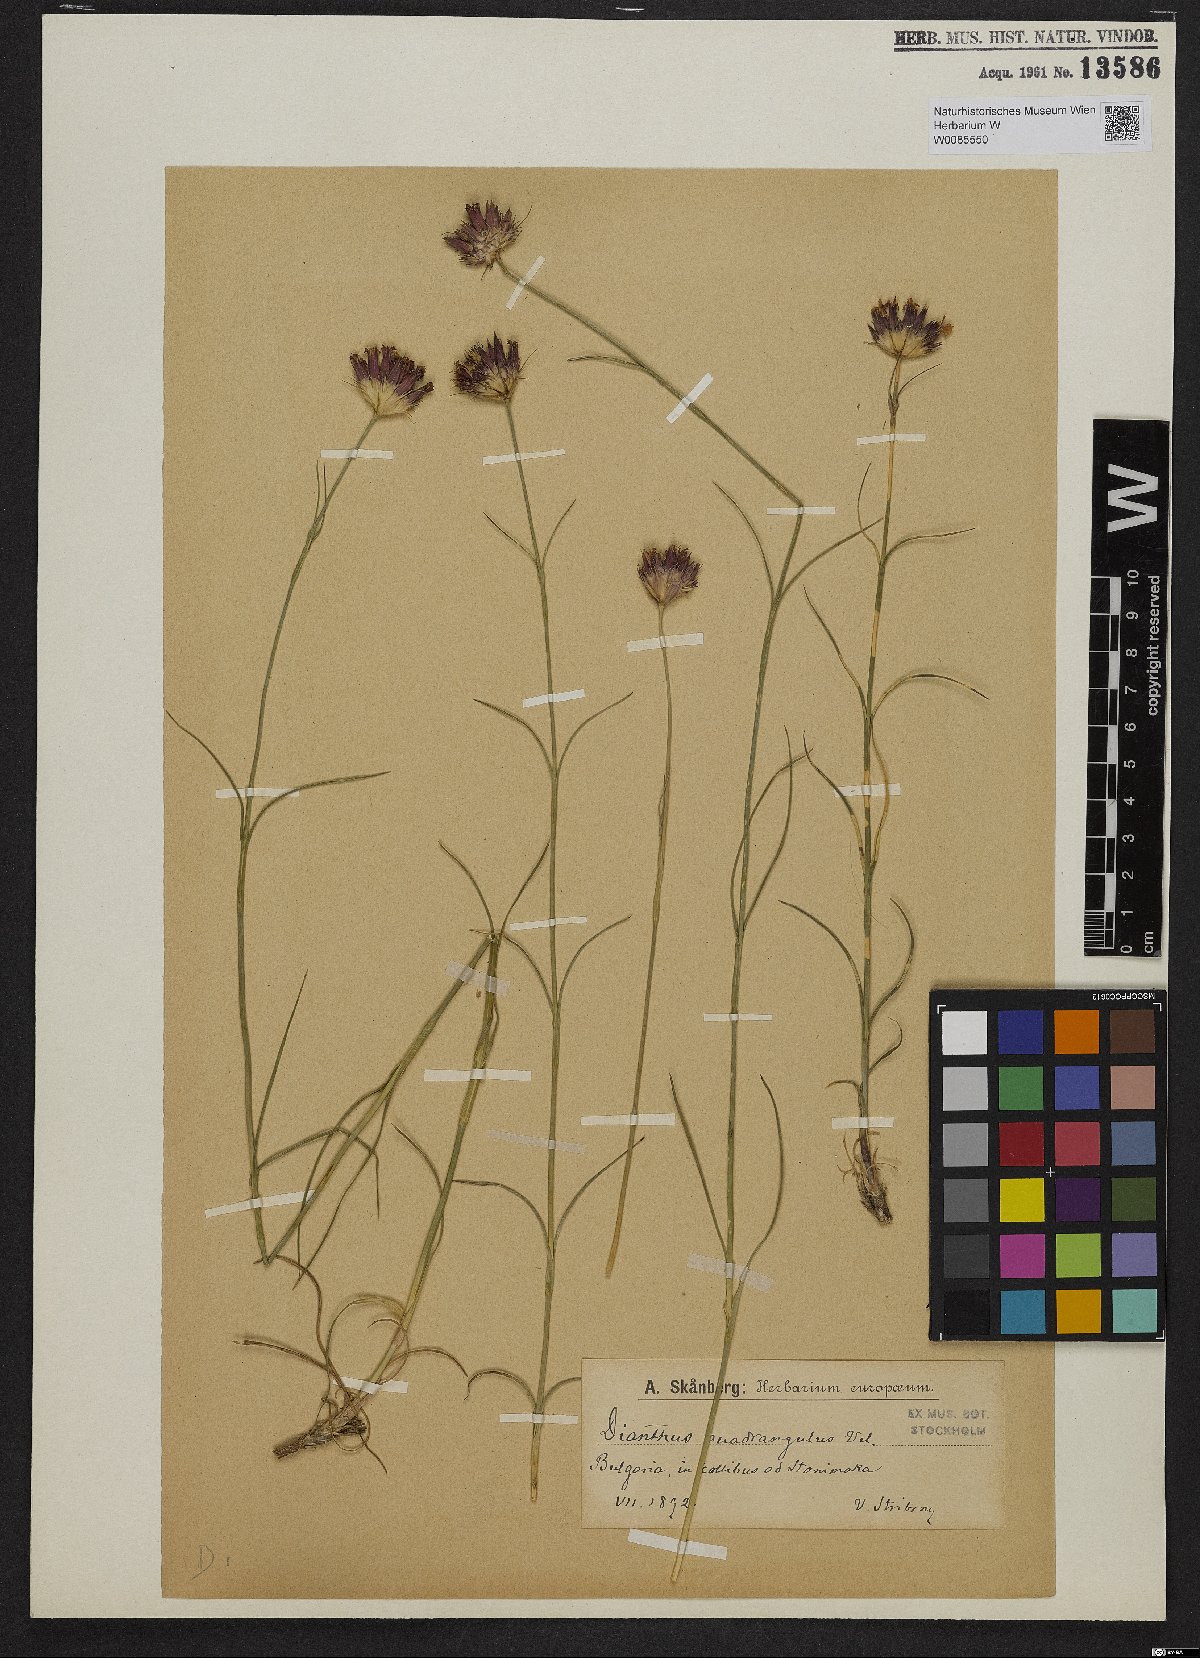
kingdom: Plantae
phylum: Tracheophyta
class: Magnoliopsida
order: Caryophyllales
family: Caryophyllaceae
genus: Dianthus
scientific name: Dianthus cruentus
